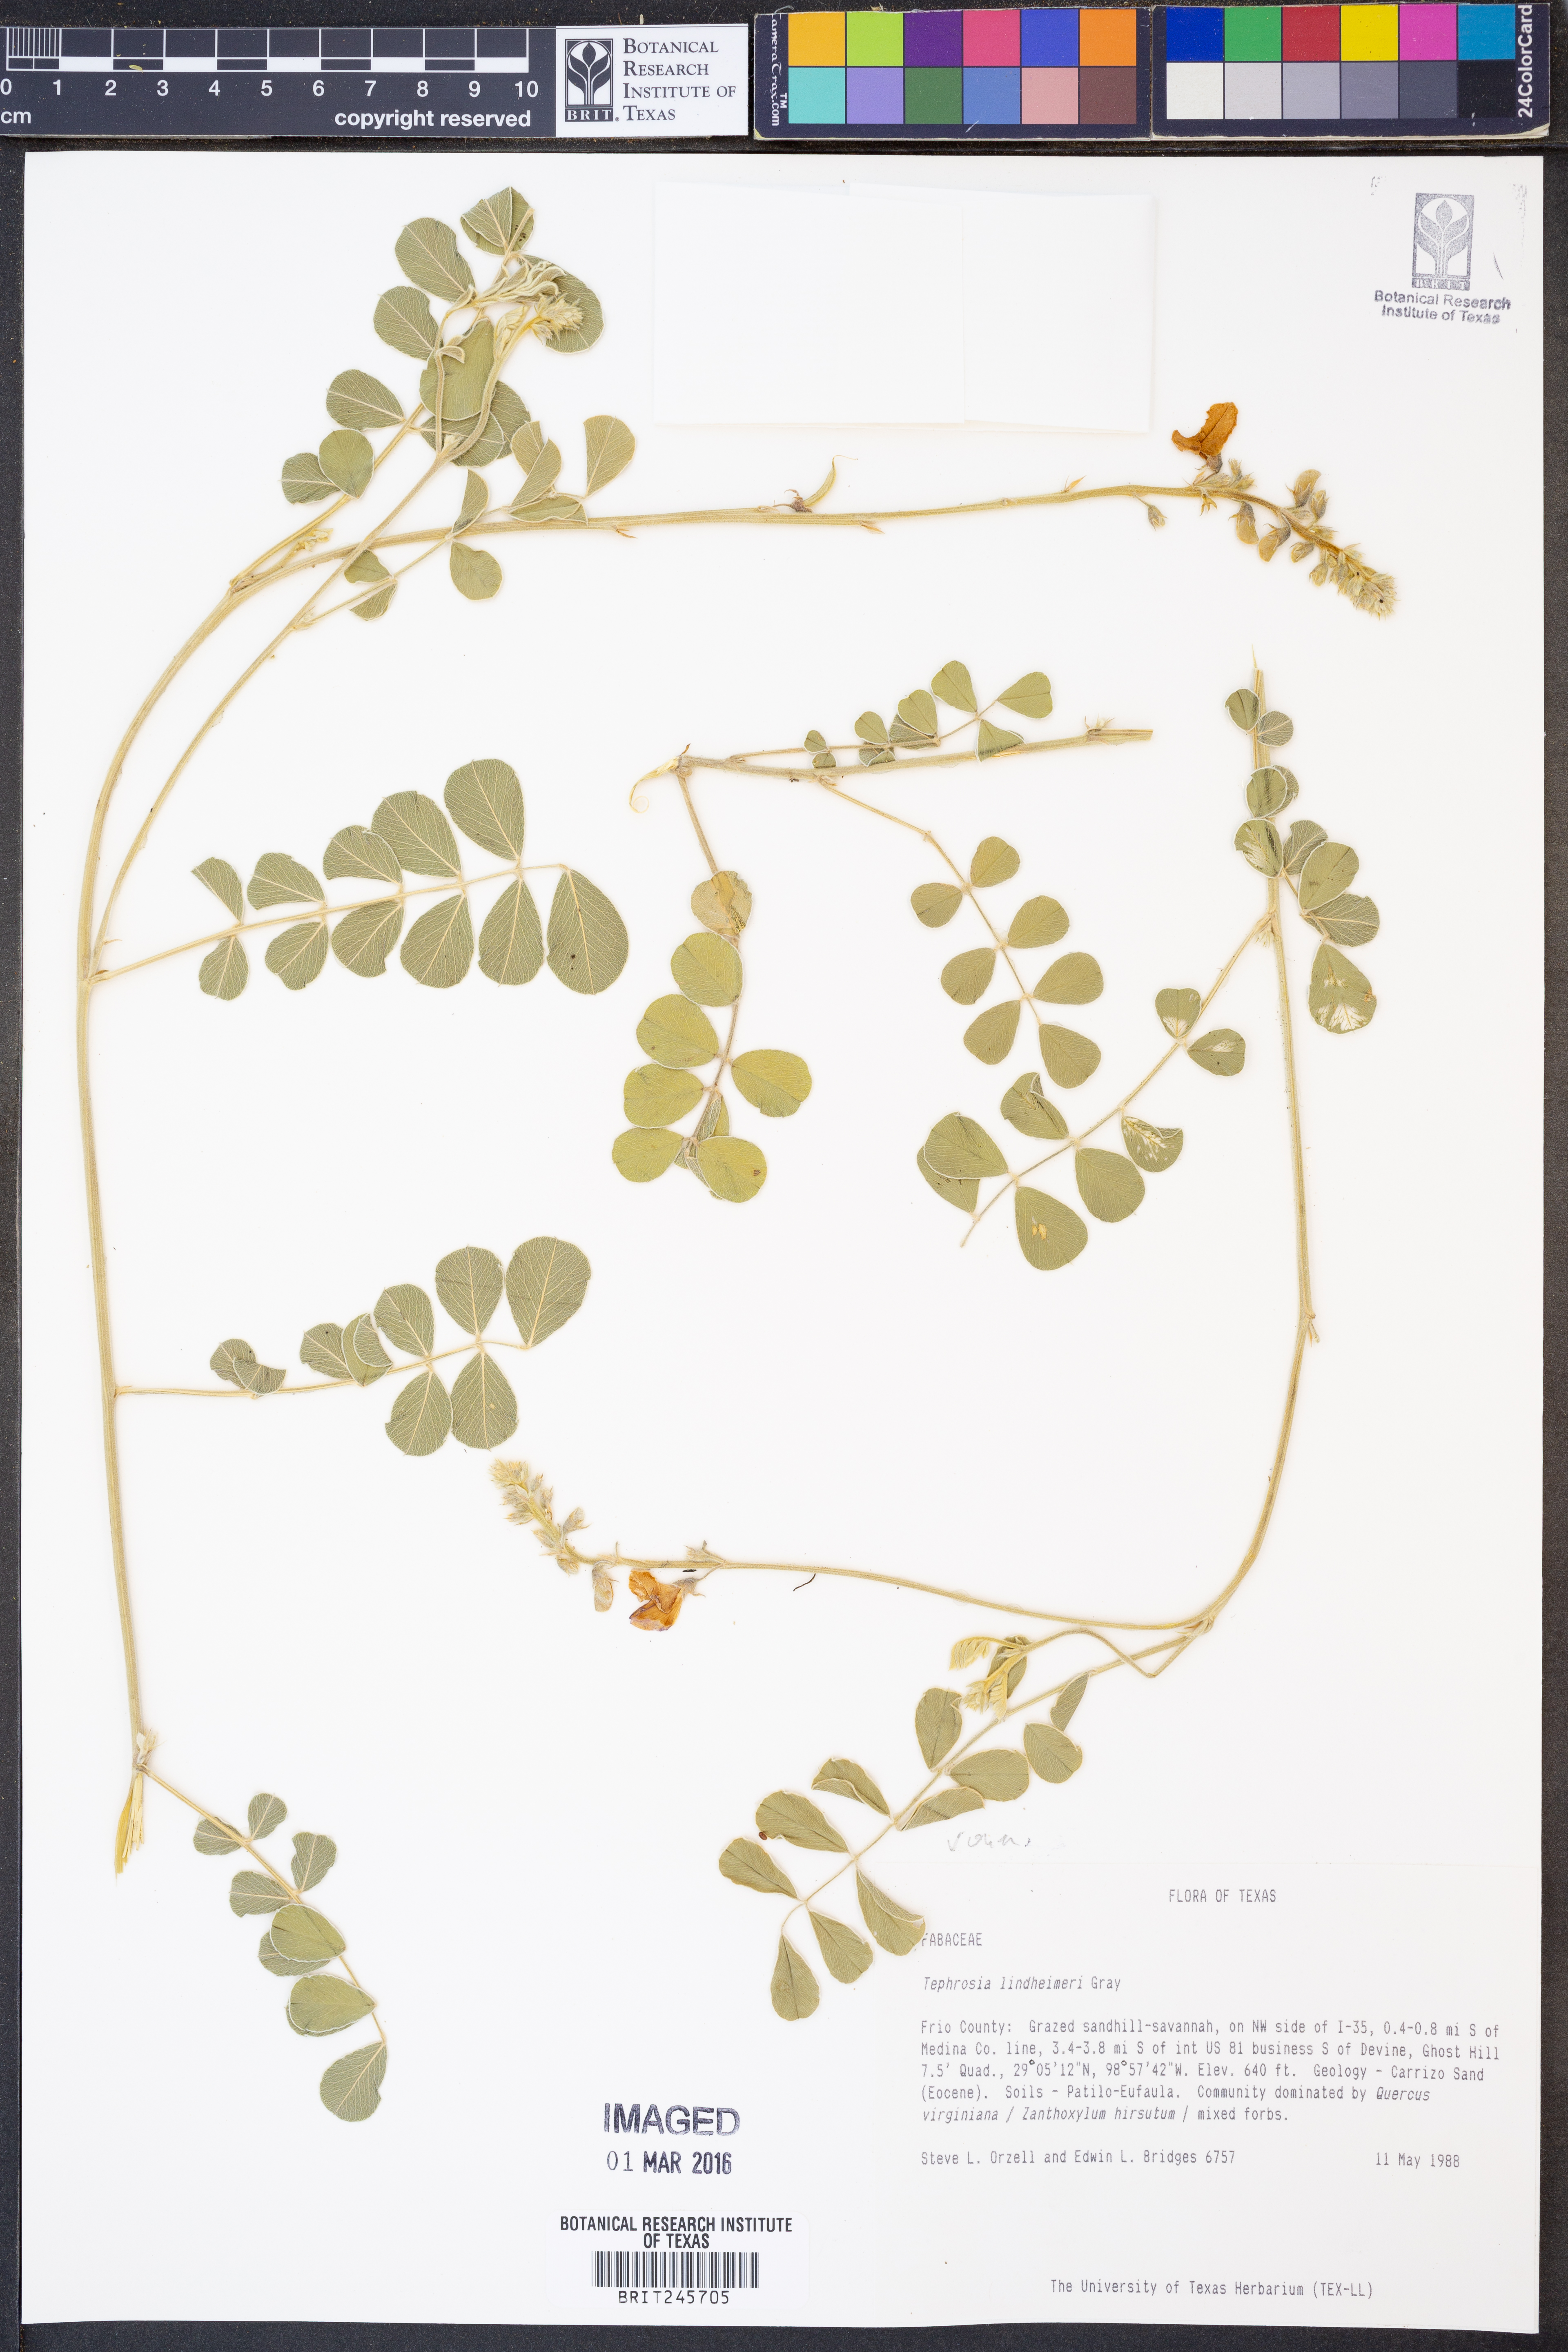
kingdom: Plantae
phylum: Tracheophyta
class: Magnoliopsida
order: Fabales
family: Fabaceae
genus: Tephrosia
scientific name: Tephrosia lindheimeri
